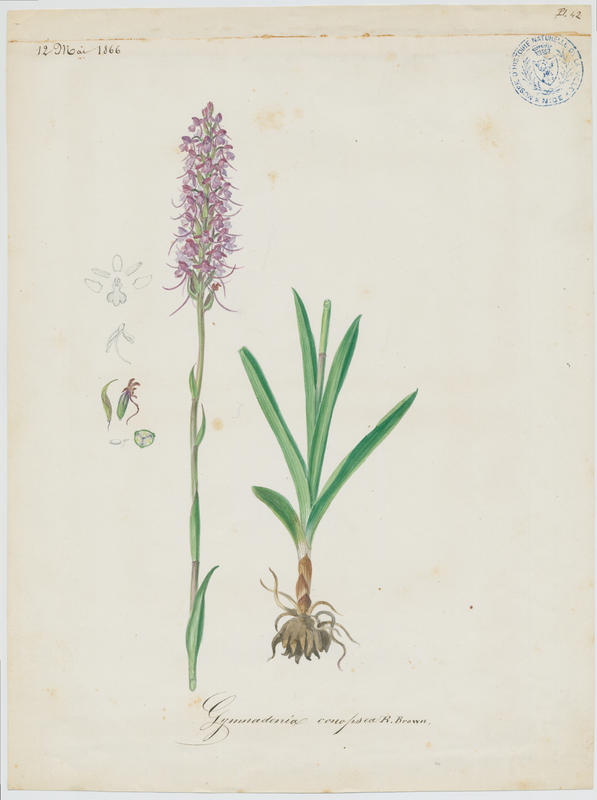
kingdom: Plantae
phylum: Tracheophyta
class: Liliopsida
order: Asparagales
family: Orchidaceae
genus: Gymnadenia
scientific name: Gymnadenia conopsea
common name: Fragrant orchid
